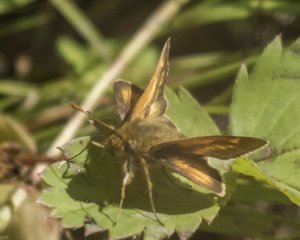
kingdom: Animalia
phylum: Arthropoda
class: Insecta
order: Lepidoptera
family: Hesperiidae
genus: Polites
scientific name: Polites
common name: Long Dash Skipper
